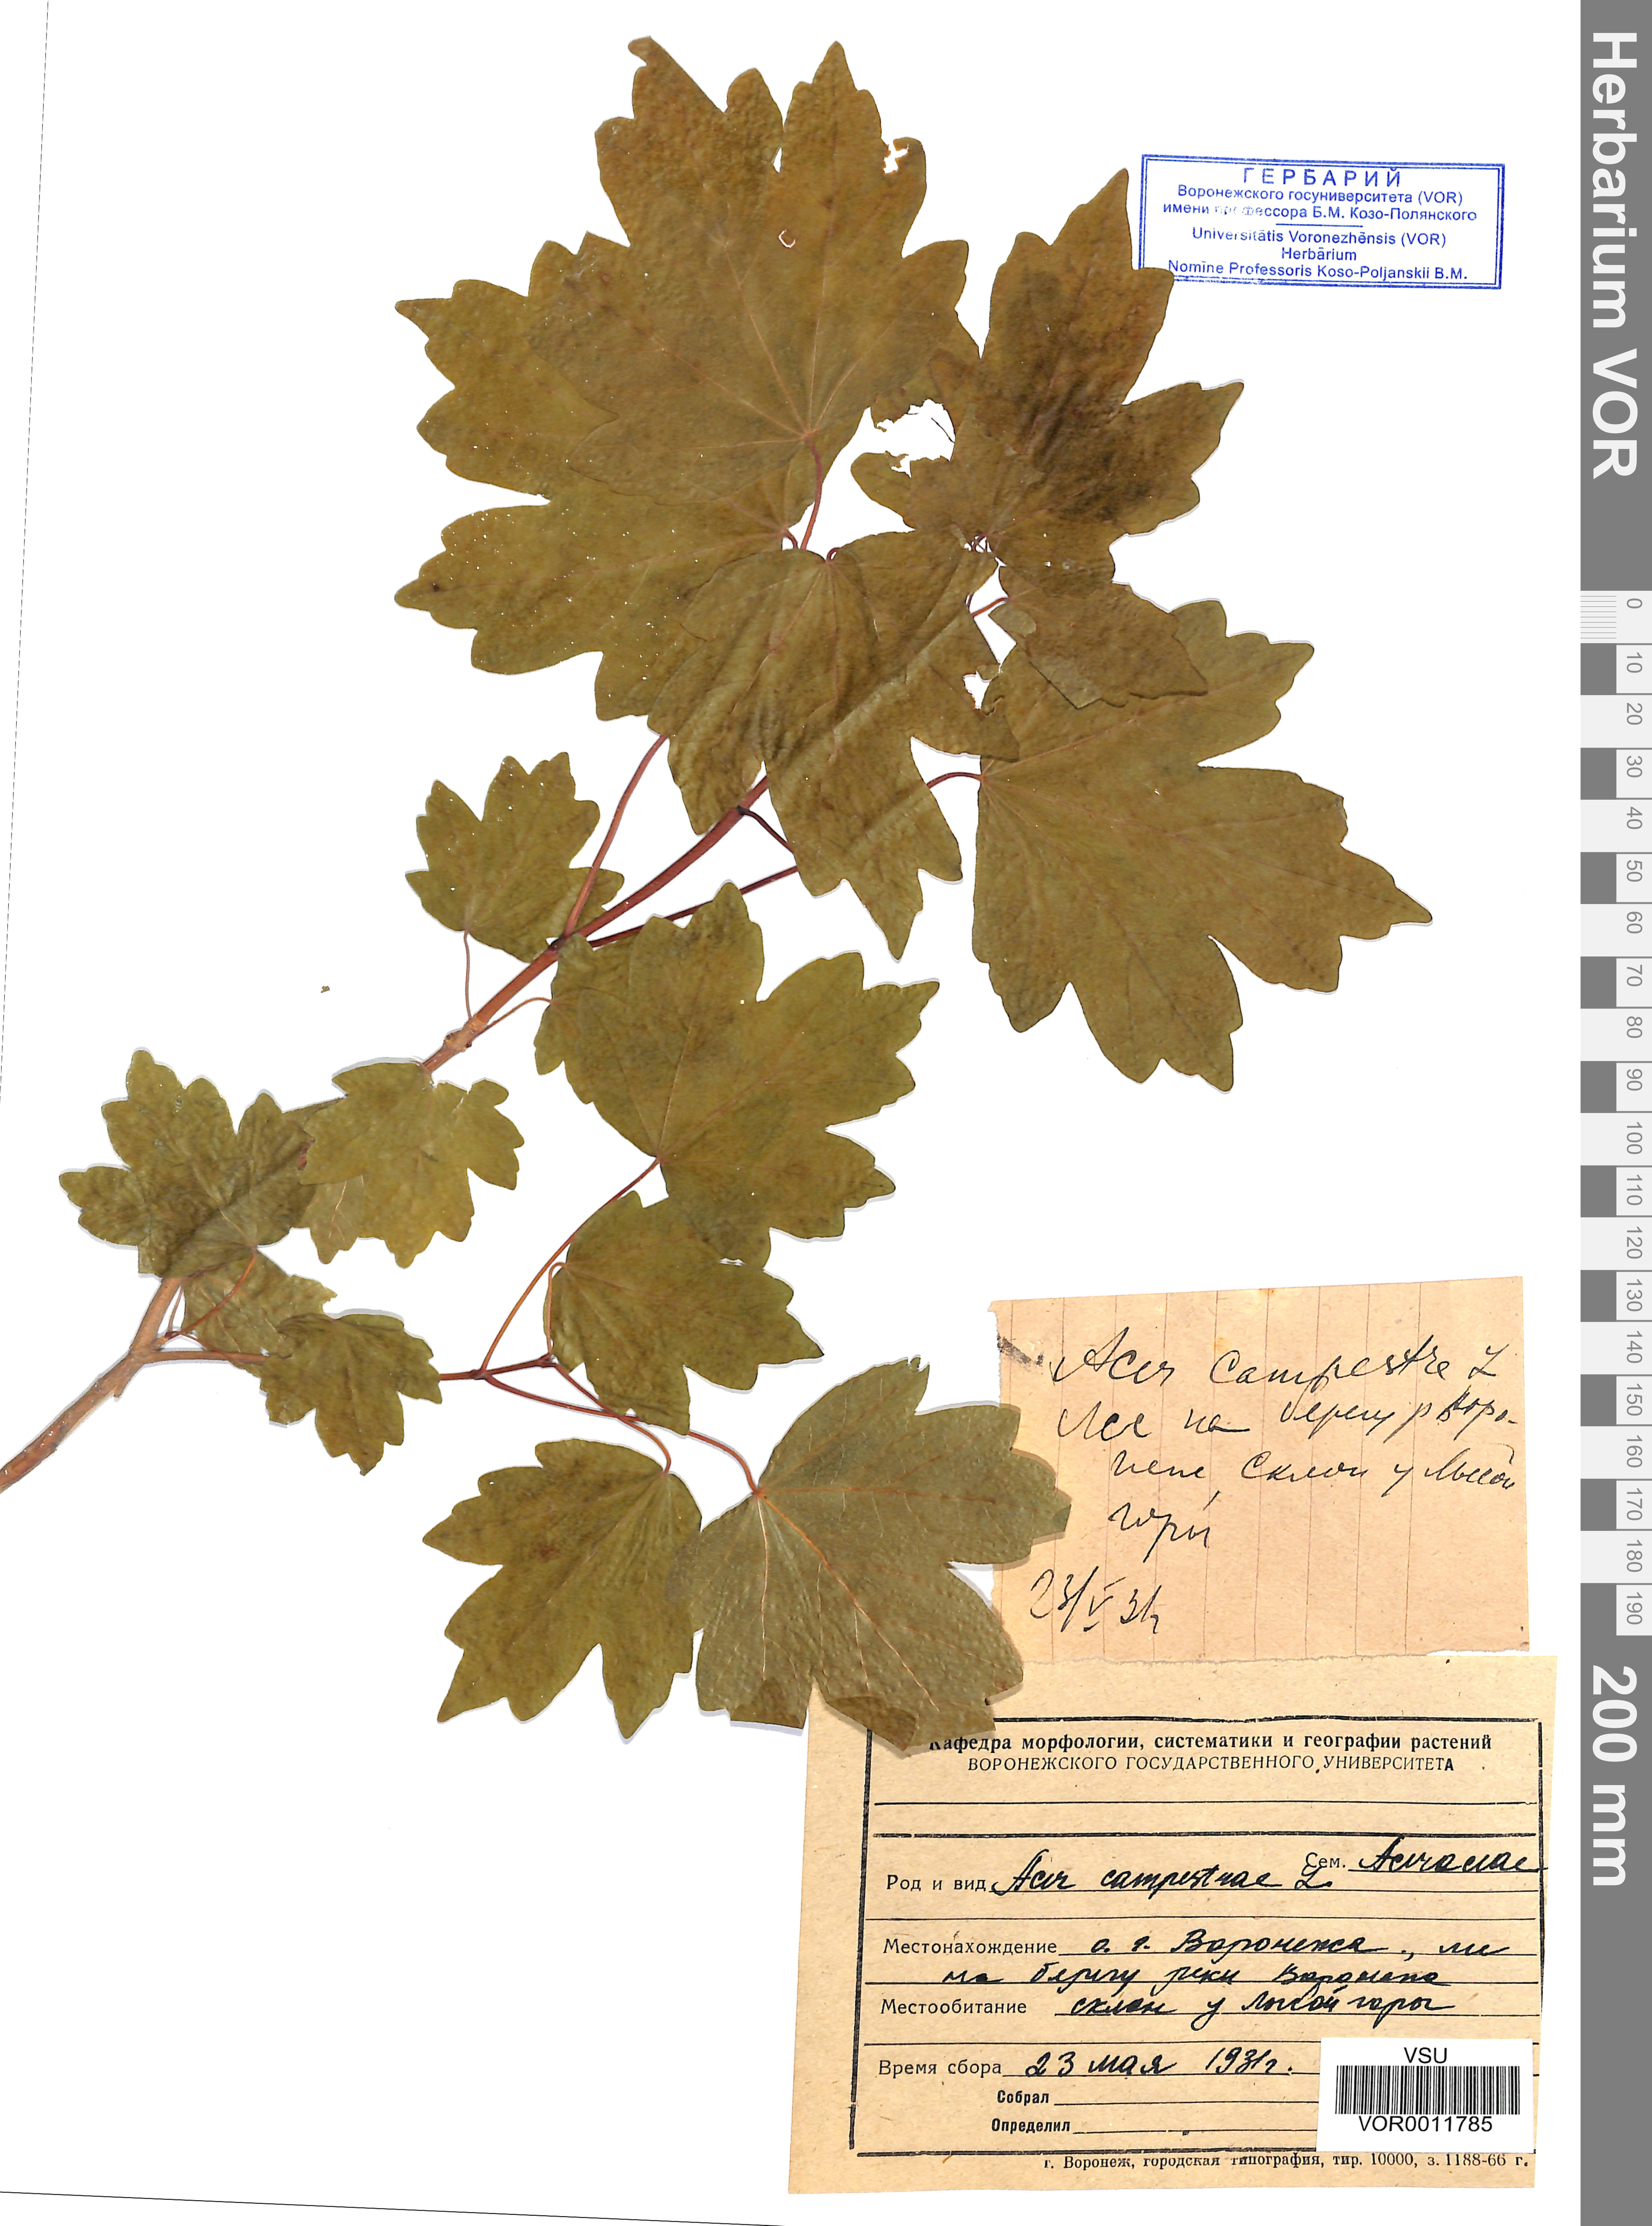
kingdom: Plantae
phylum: Tracheophyta
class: Magnoliopsida
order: Sapindales
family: Sapindaceae
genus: Acer
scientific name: Acer campestre
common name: Field maple
